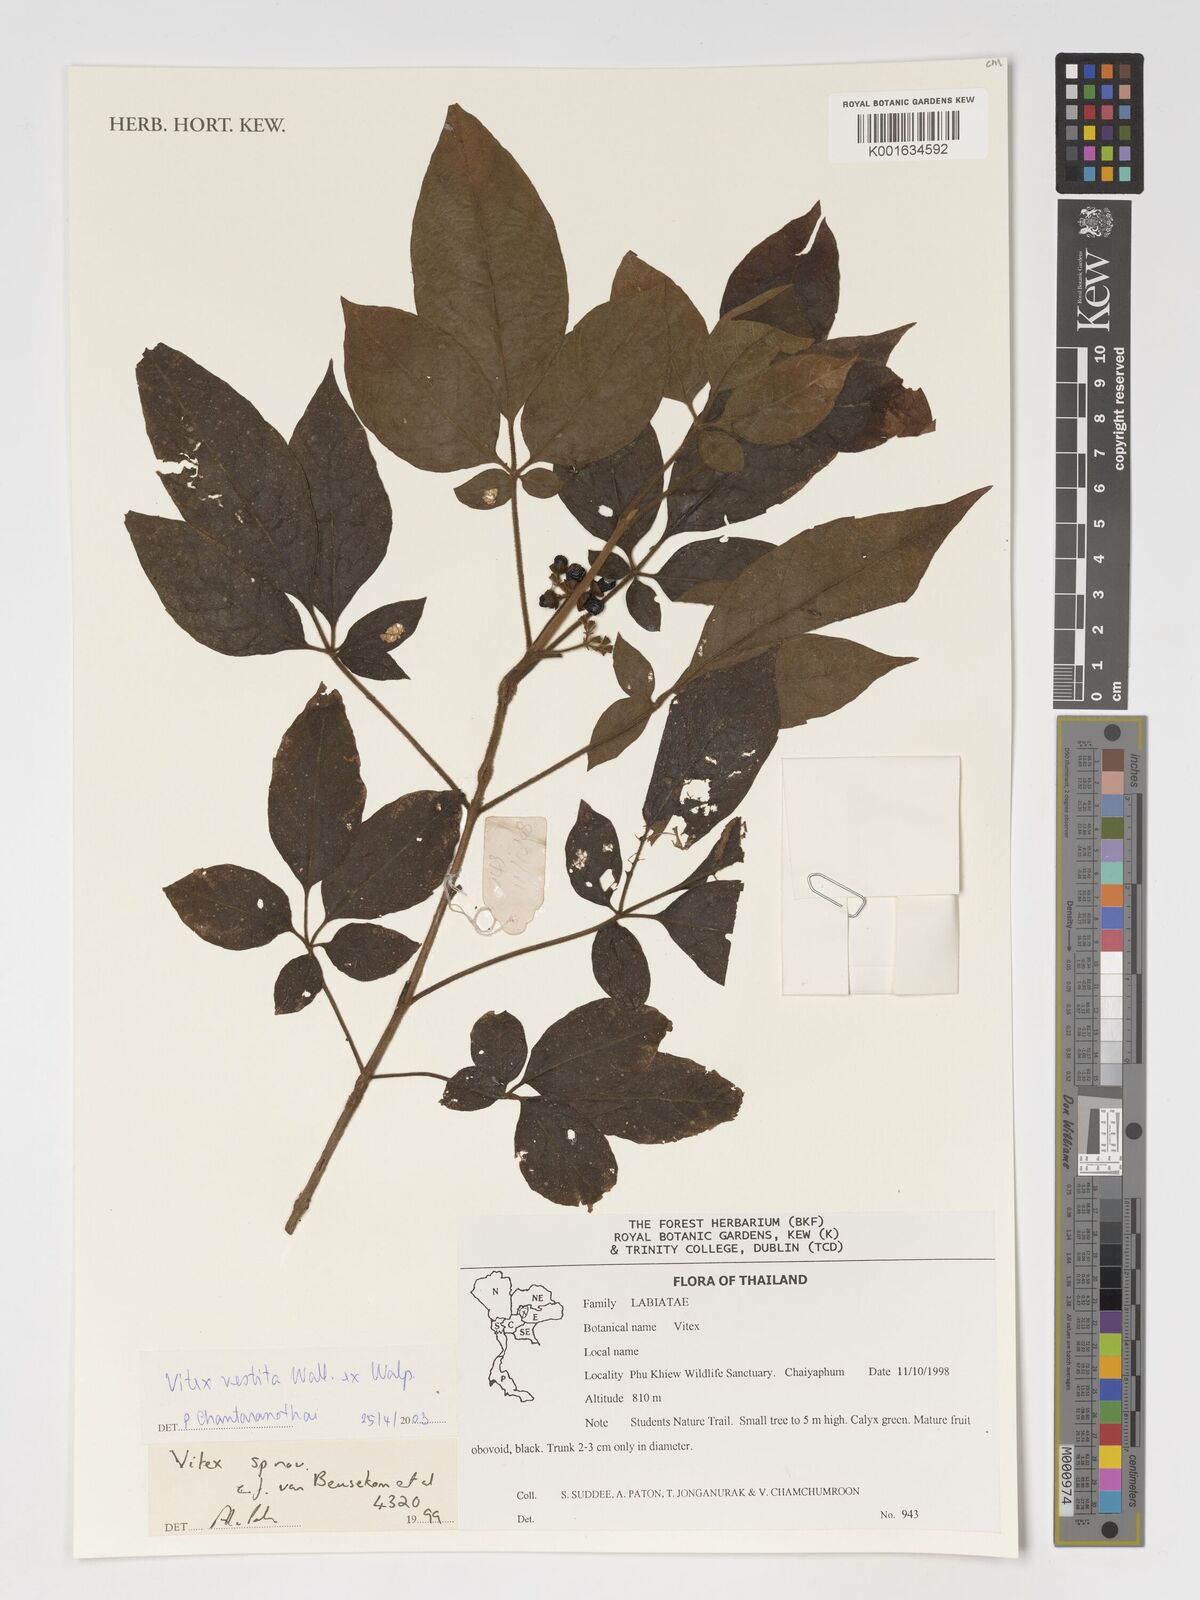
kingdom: Plantae
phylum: Tracheophyta
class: Magnoliopsida
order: Lamiales
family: Lamiaceae
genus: Vitex
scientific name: Vitex vestita
